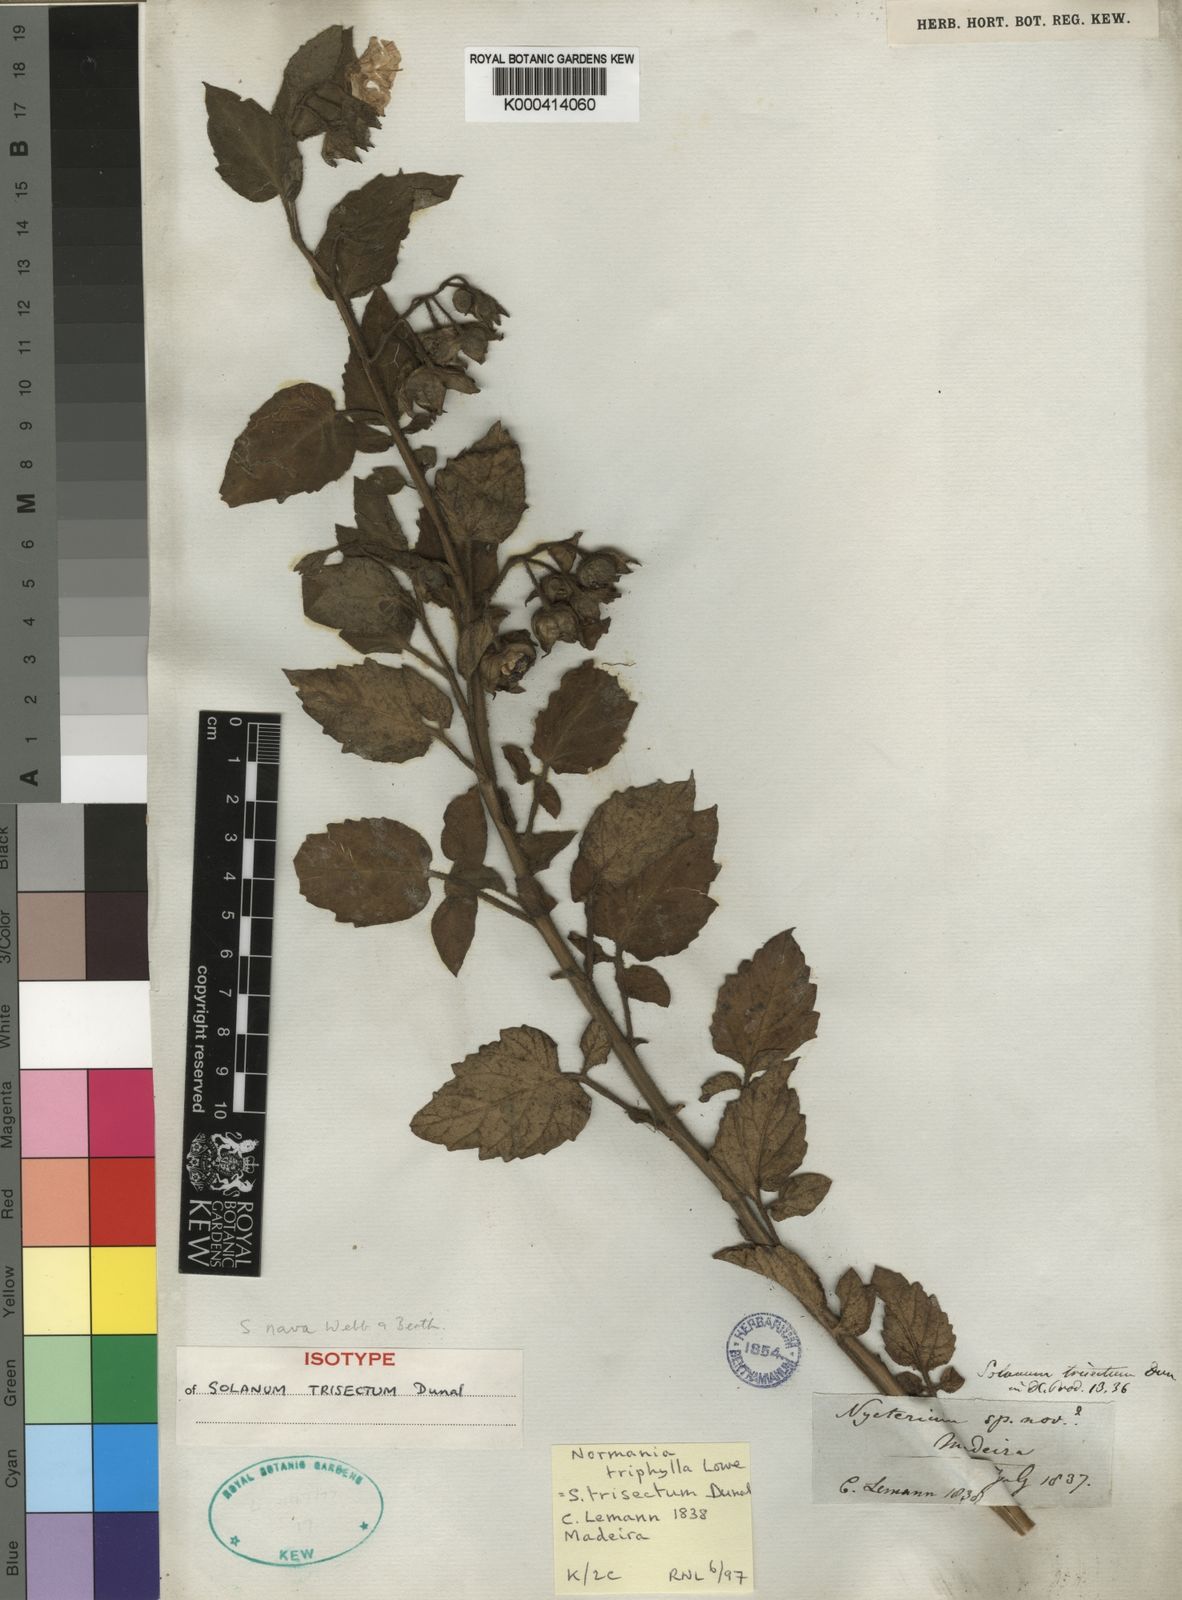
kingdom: Plantae
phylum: Tracheophyta
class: Magnoliopsida
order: Solanales
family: Solanaceae
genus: Solanum
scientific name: Solanum trisectum
